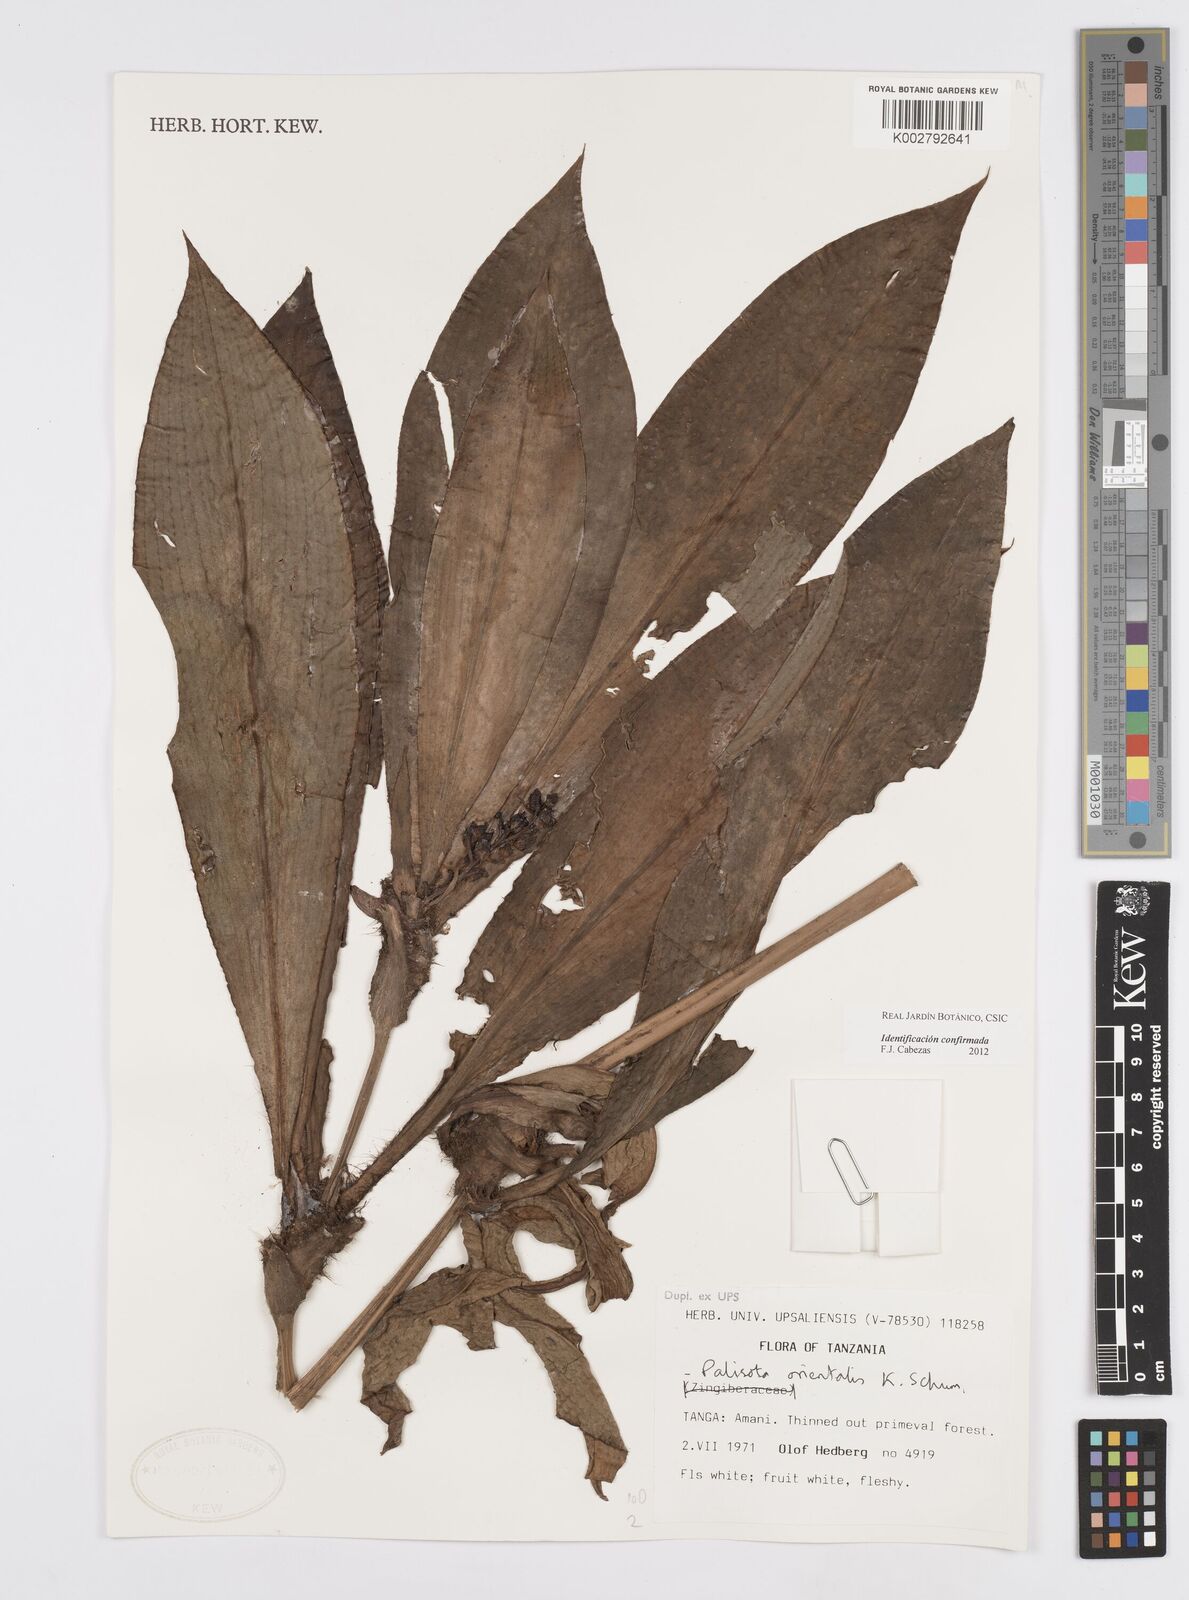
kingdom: Plantae
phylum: Tracheophyta
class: Liliopsida
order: Commelinales
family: Commelinaceae
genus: Palisota
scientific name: Palisota orientalis
